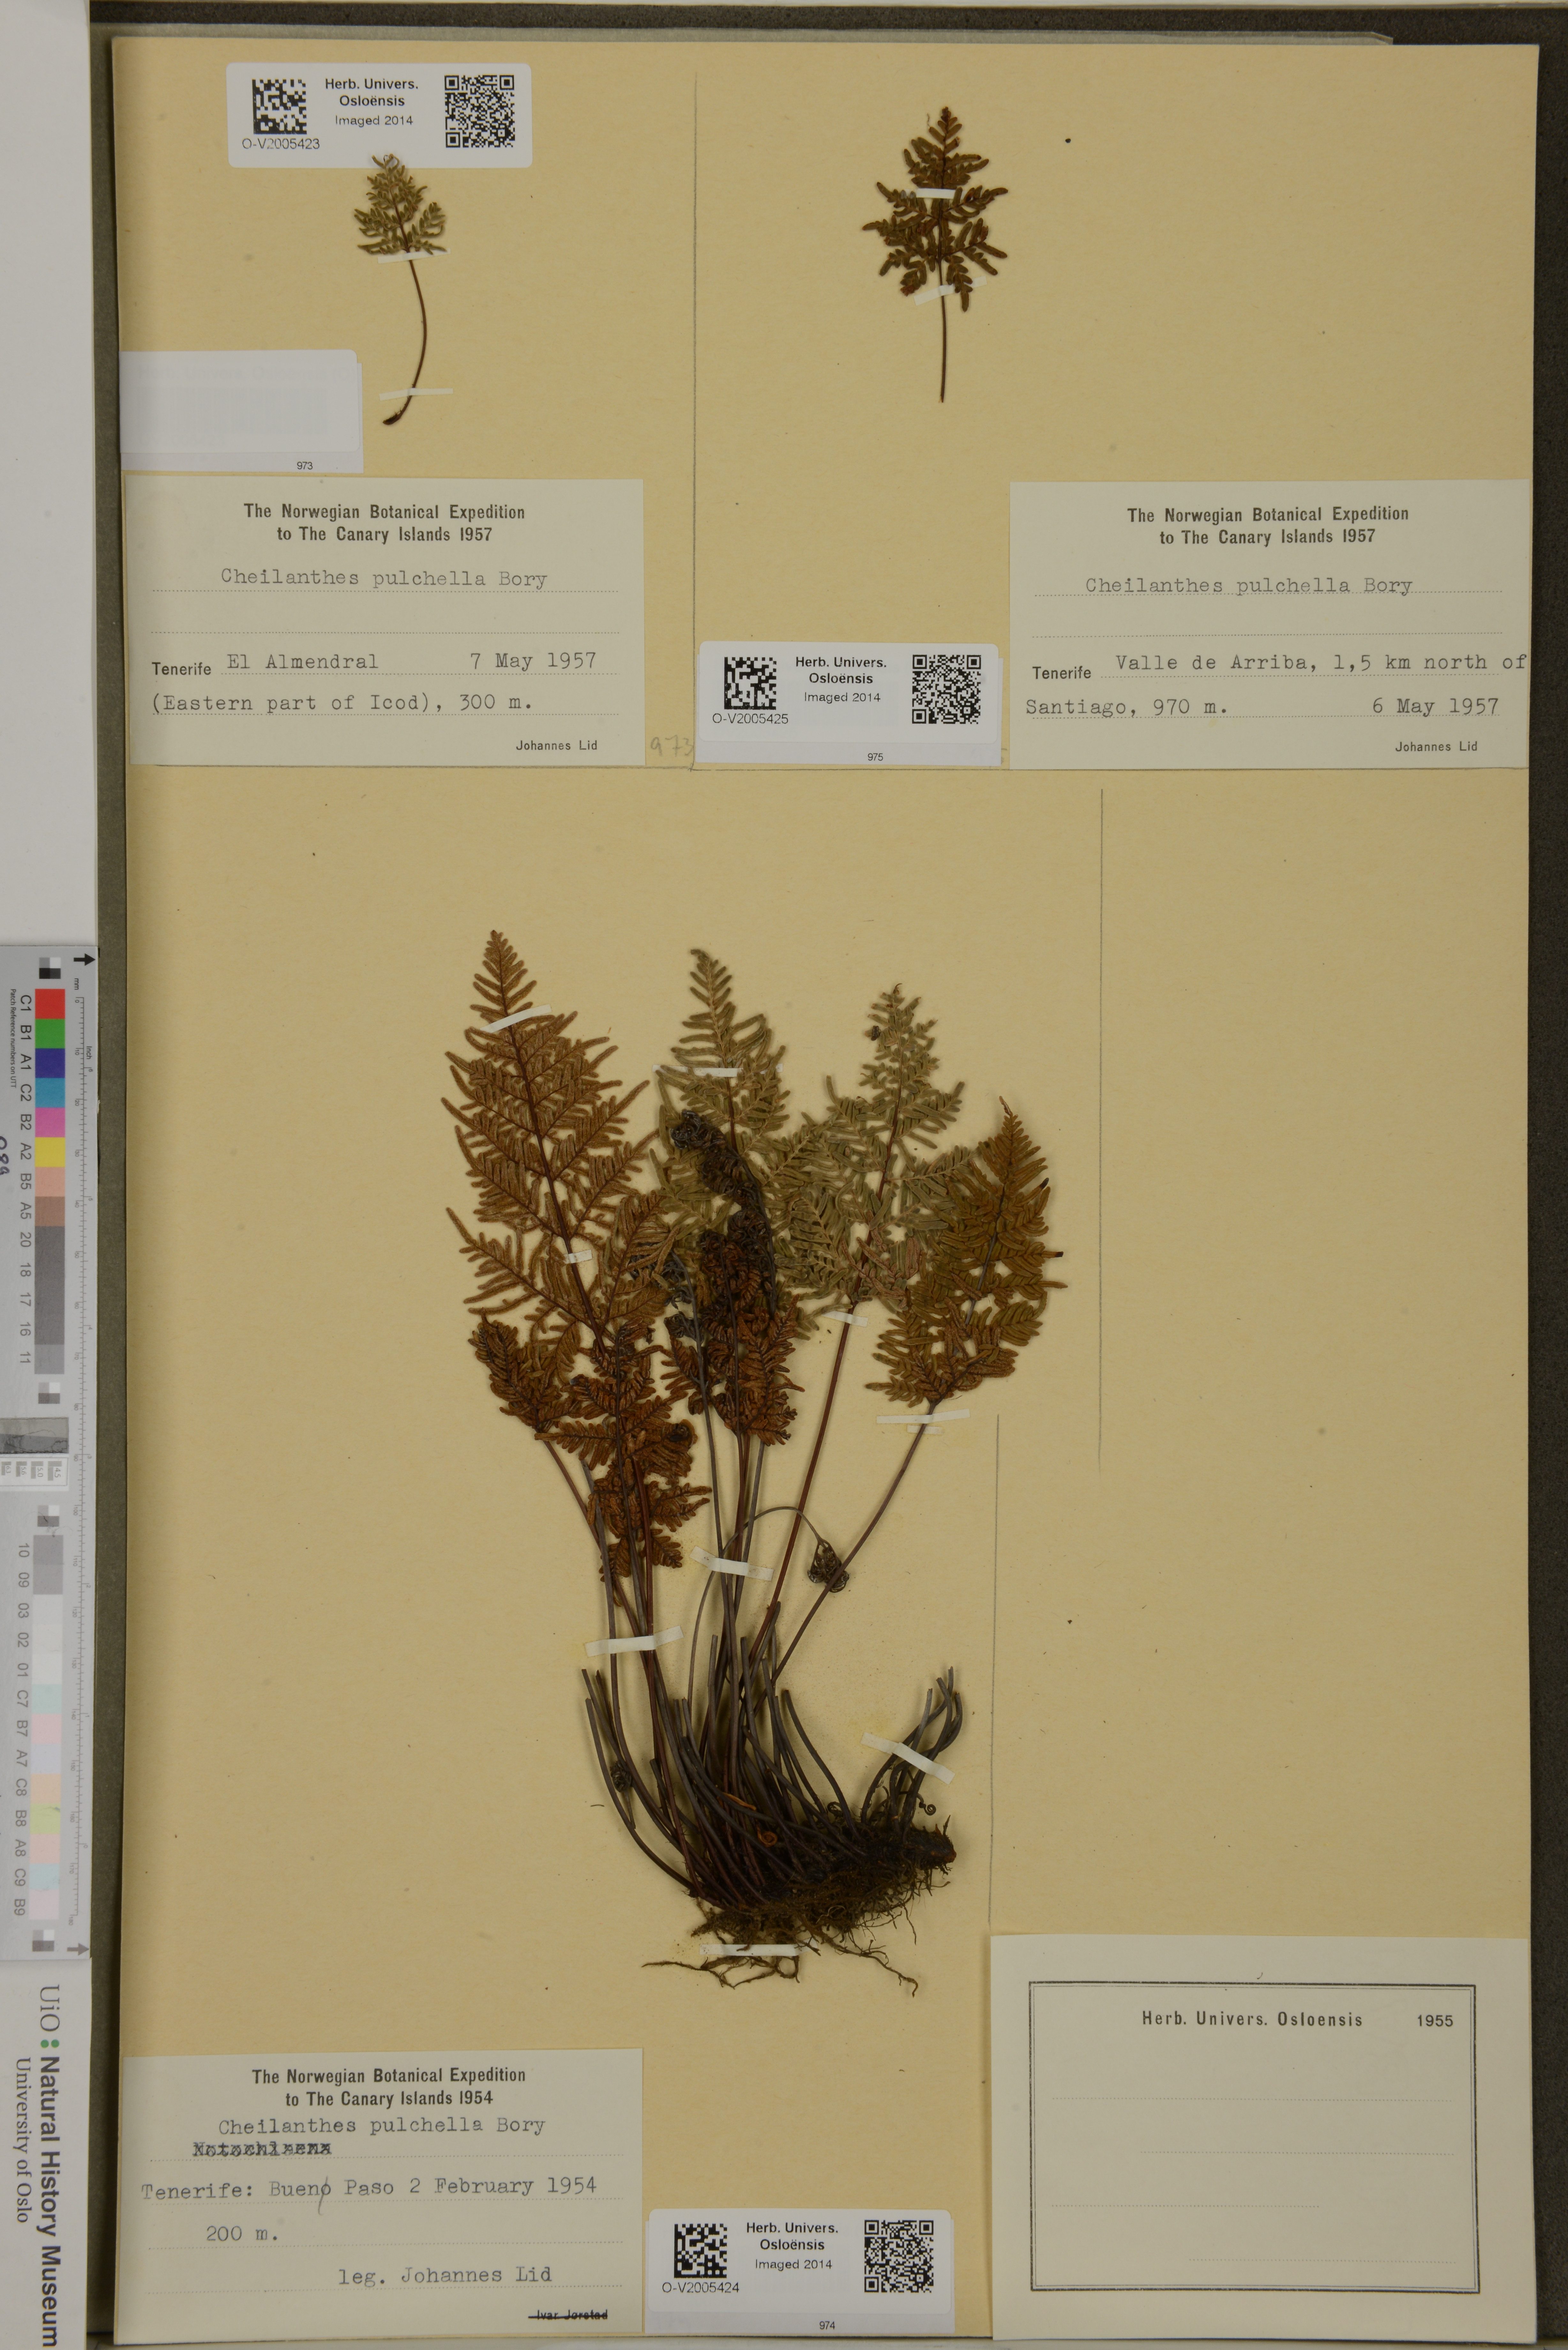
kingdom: Plantae
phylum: Tracheophyta
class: Polypodiopsida
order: Polypodiales
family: Pteridaceae
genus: Cheilanthes
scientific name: Cheilanthes pulchella
